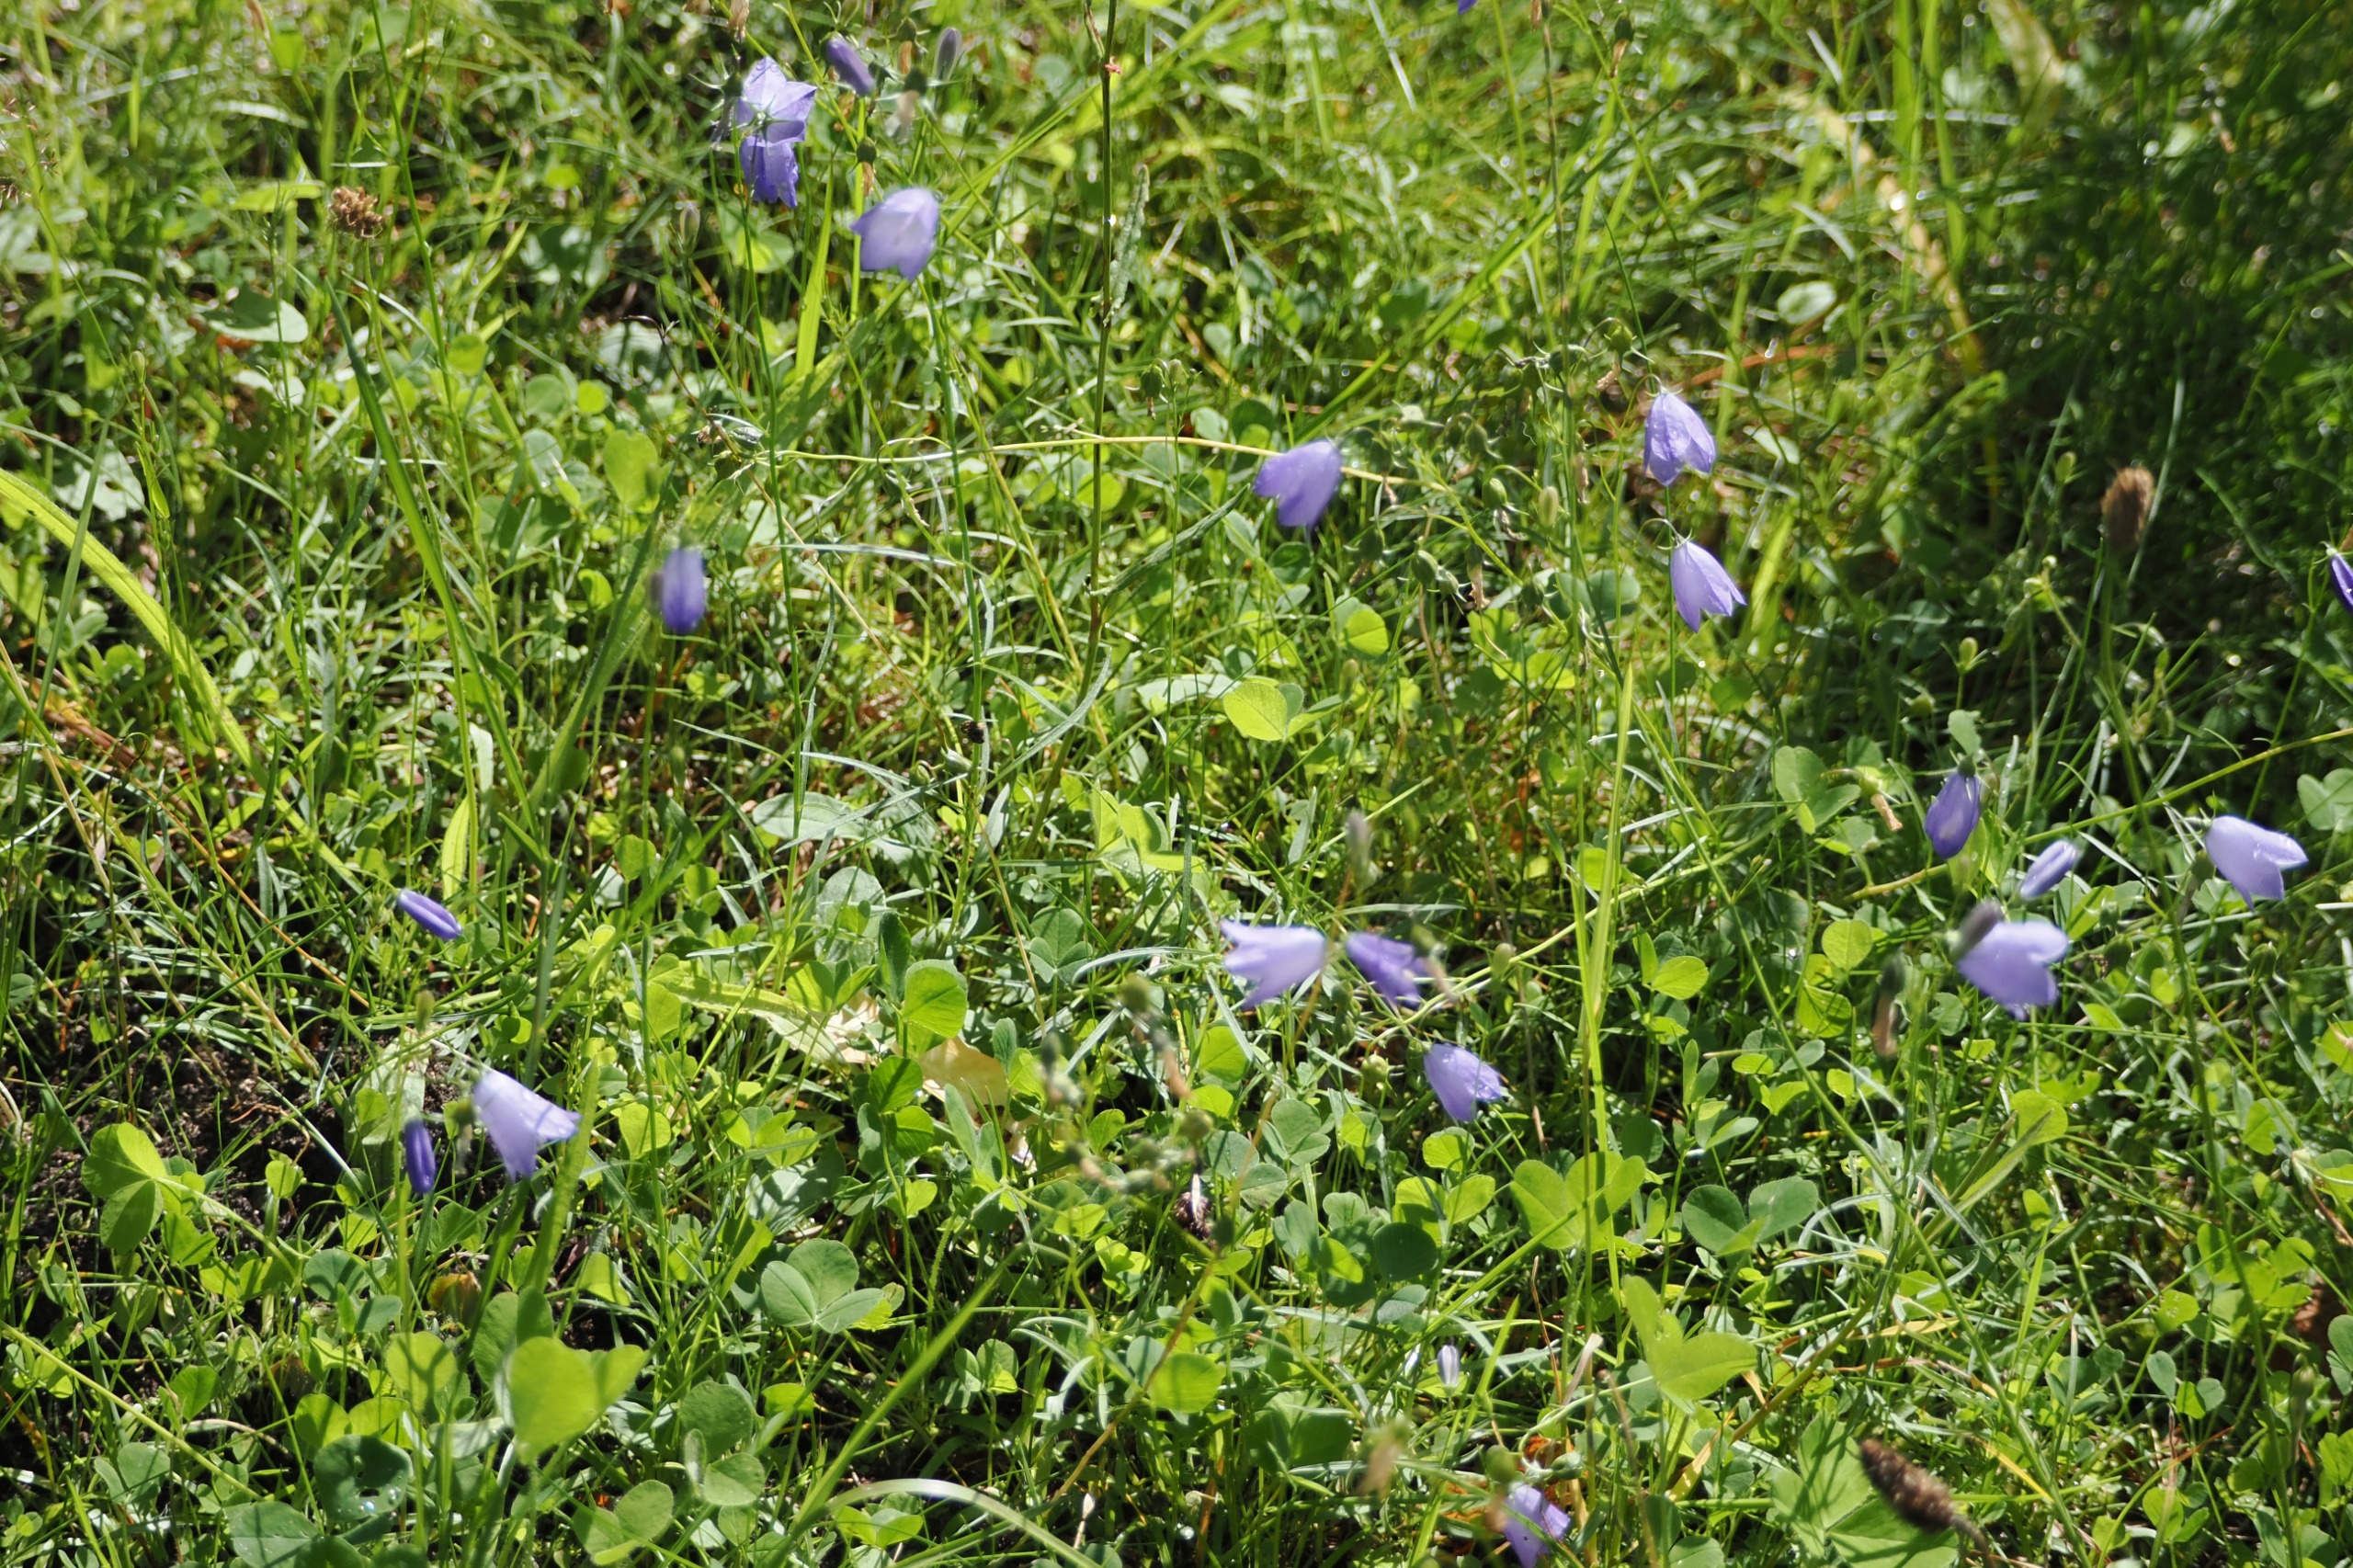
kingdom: Plantae
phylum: Tracheophyta
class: Magnoliopsida
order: Asterales
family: Campanulaceae
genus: Campanula
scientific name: Campanula rotundifolia
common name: Liden klokke
